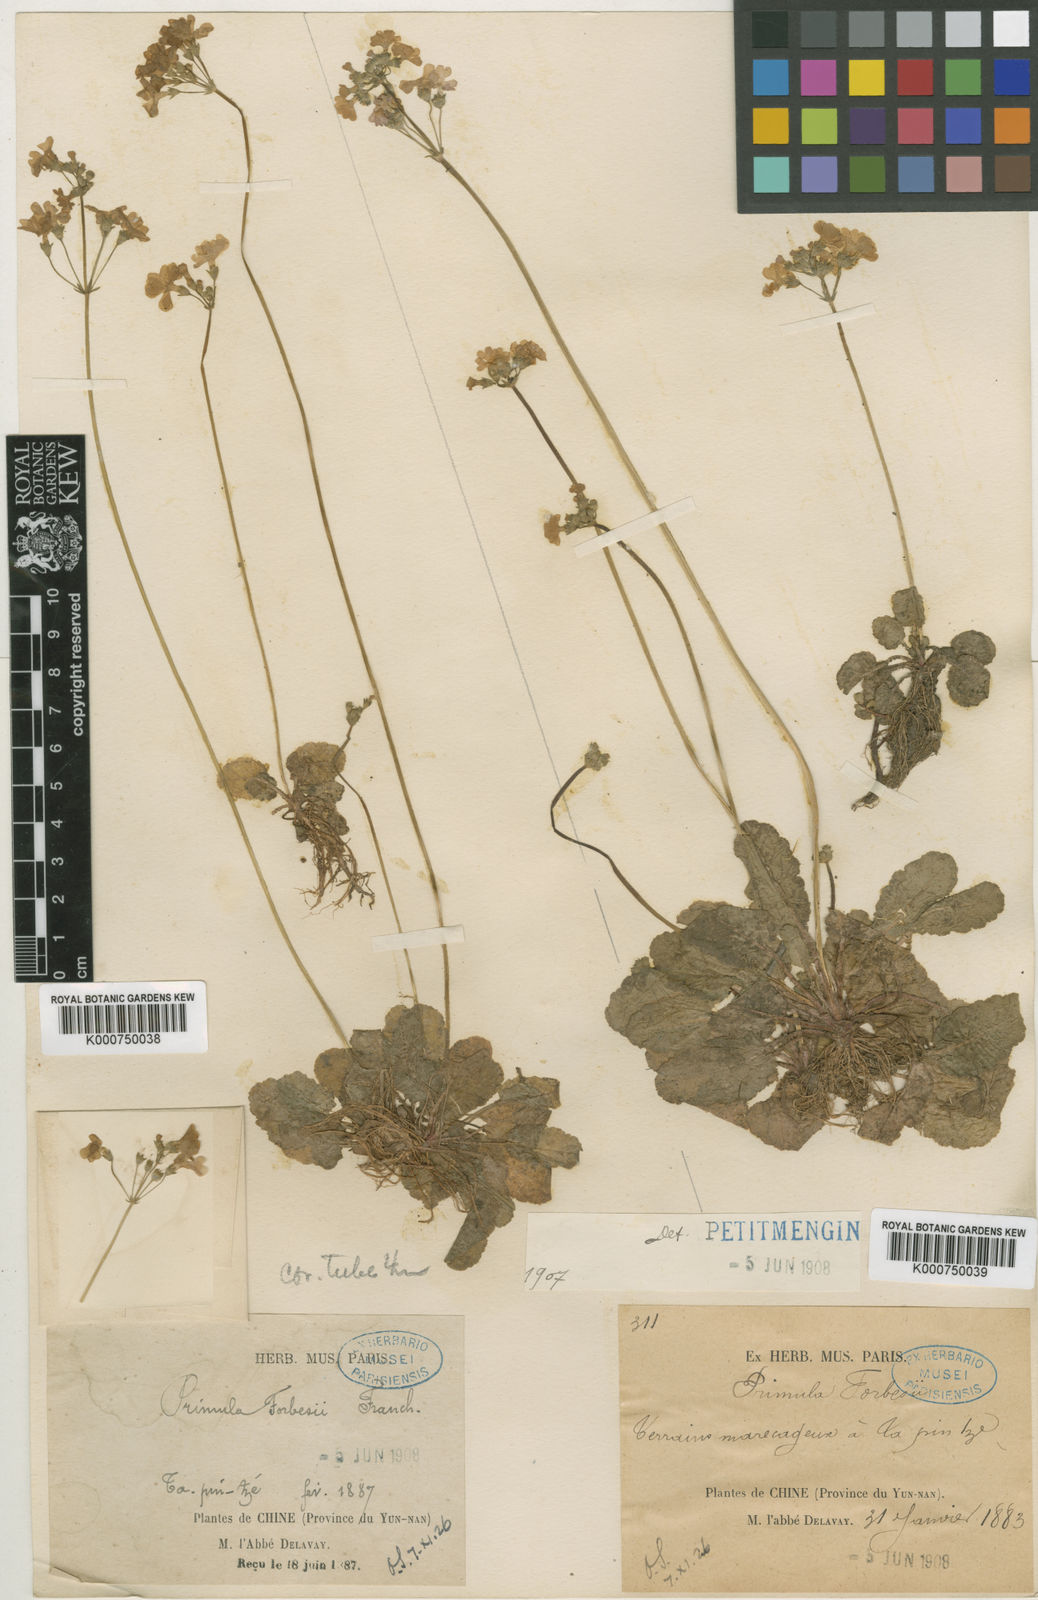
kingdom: Plantae
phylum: Tracheophyta
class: Magnoliopsida
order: Ericales
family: Primulaceae
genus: Primula
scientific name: Primula filipes
